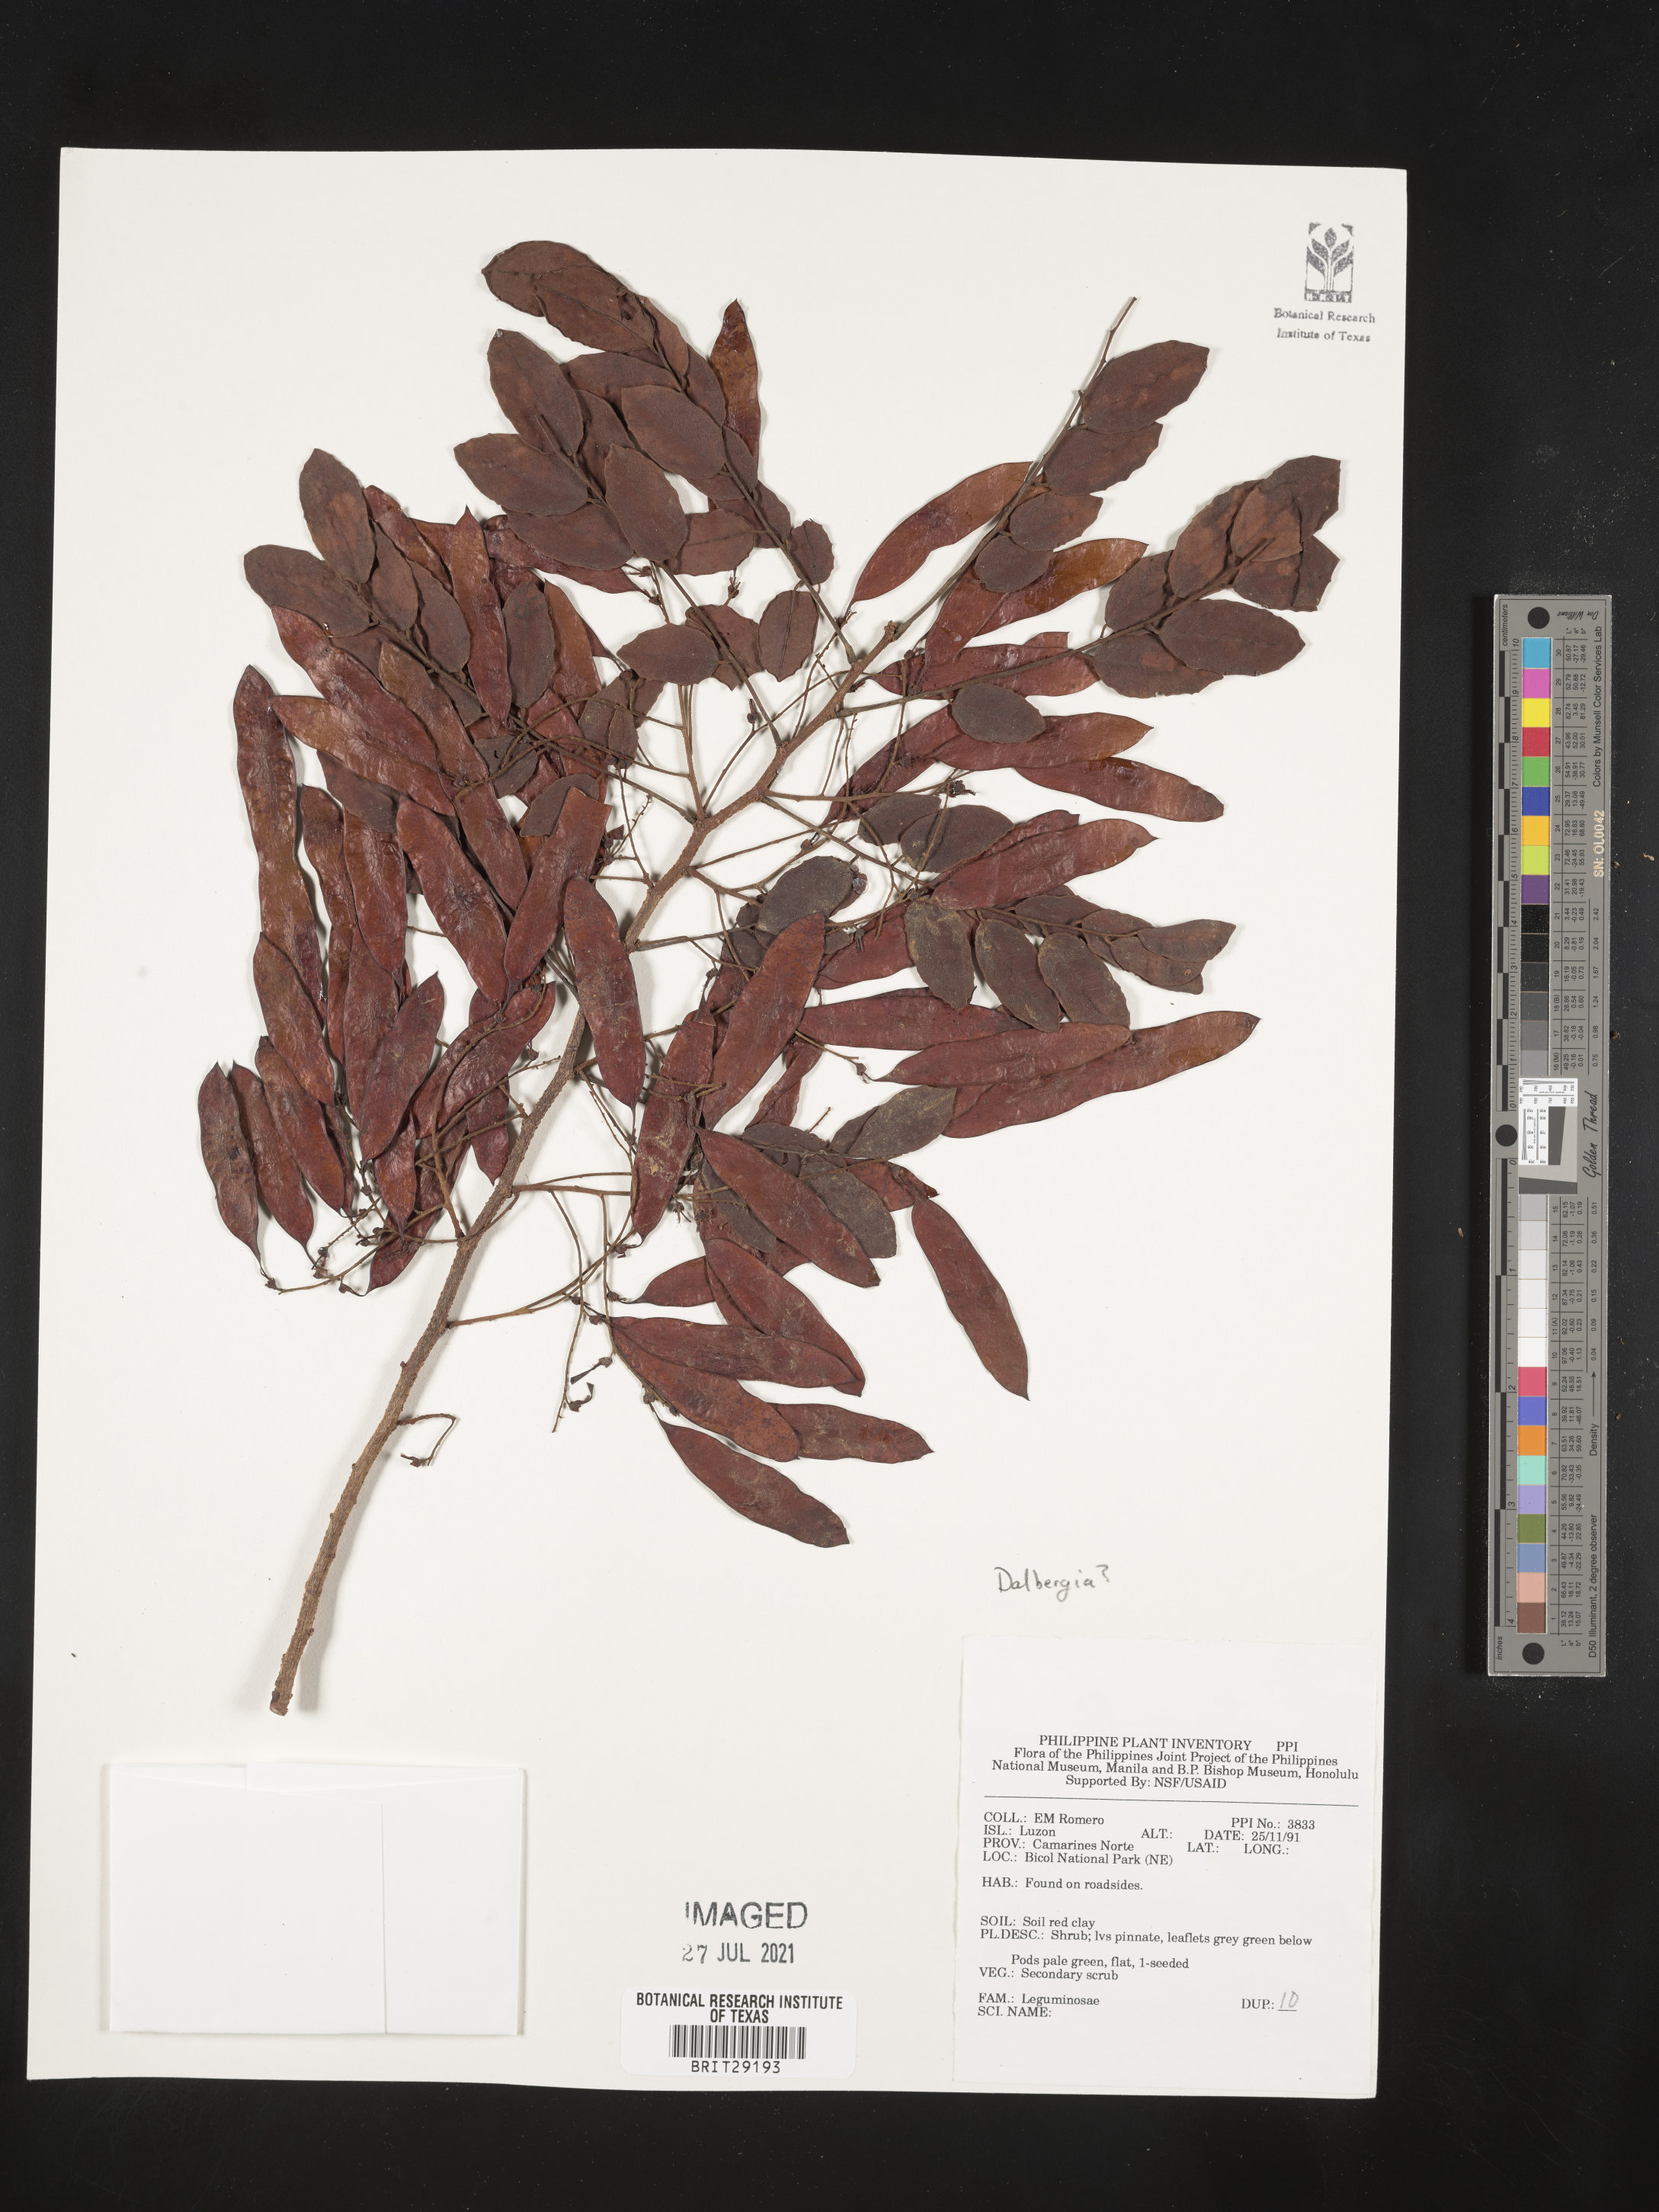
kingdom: Plantae
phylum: Tracheophyta
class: Magnoliopsida
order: Fabales
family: Fabaceae
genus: Dalbergia
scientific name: Dalbergia
